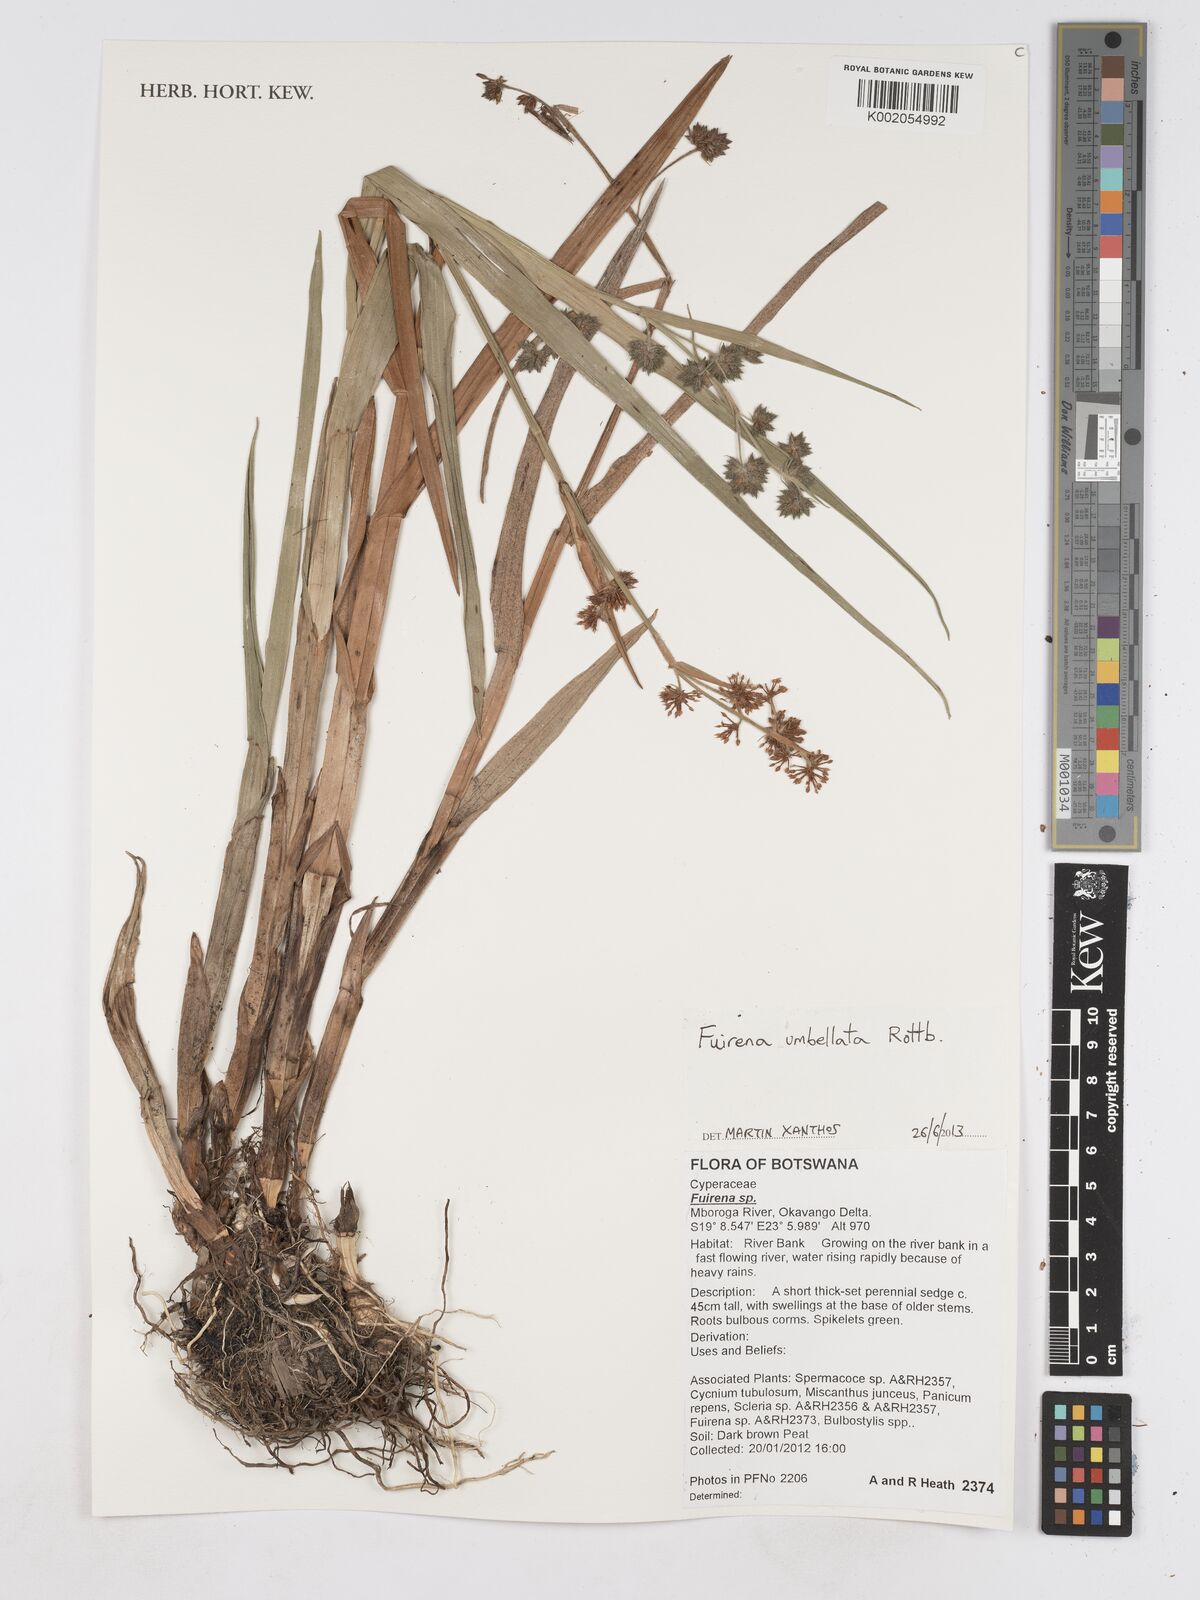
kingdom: Plantae
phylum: Tracheophyta
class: Liliopsida
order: Poales
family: Cyperaceae
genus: Fuirena
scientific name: Fuirena umbellata
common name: Yefen
